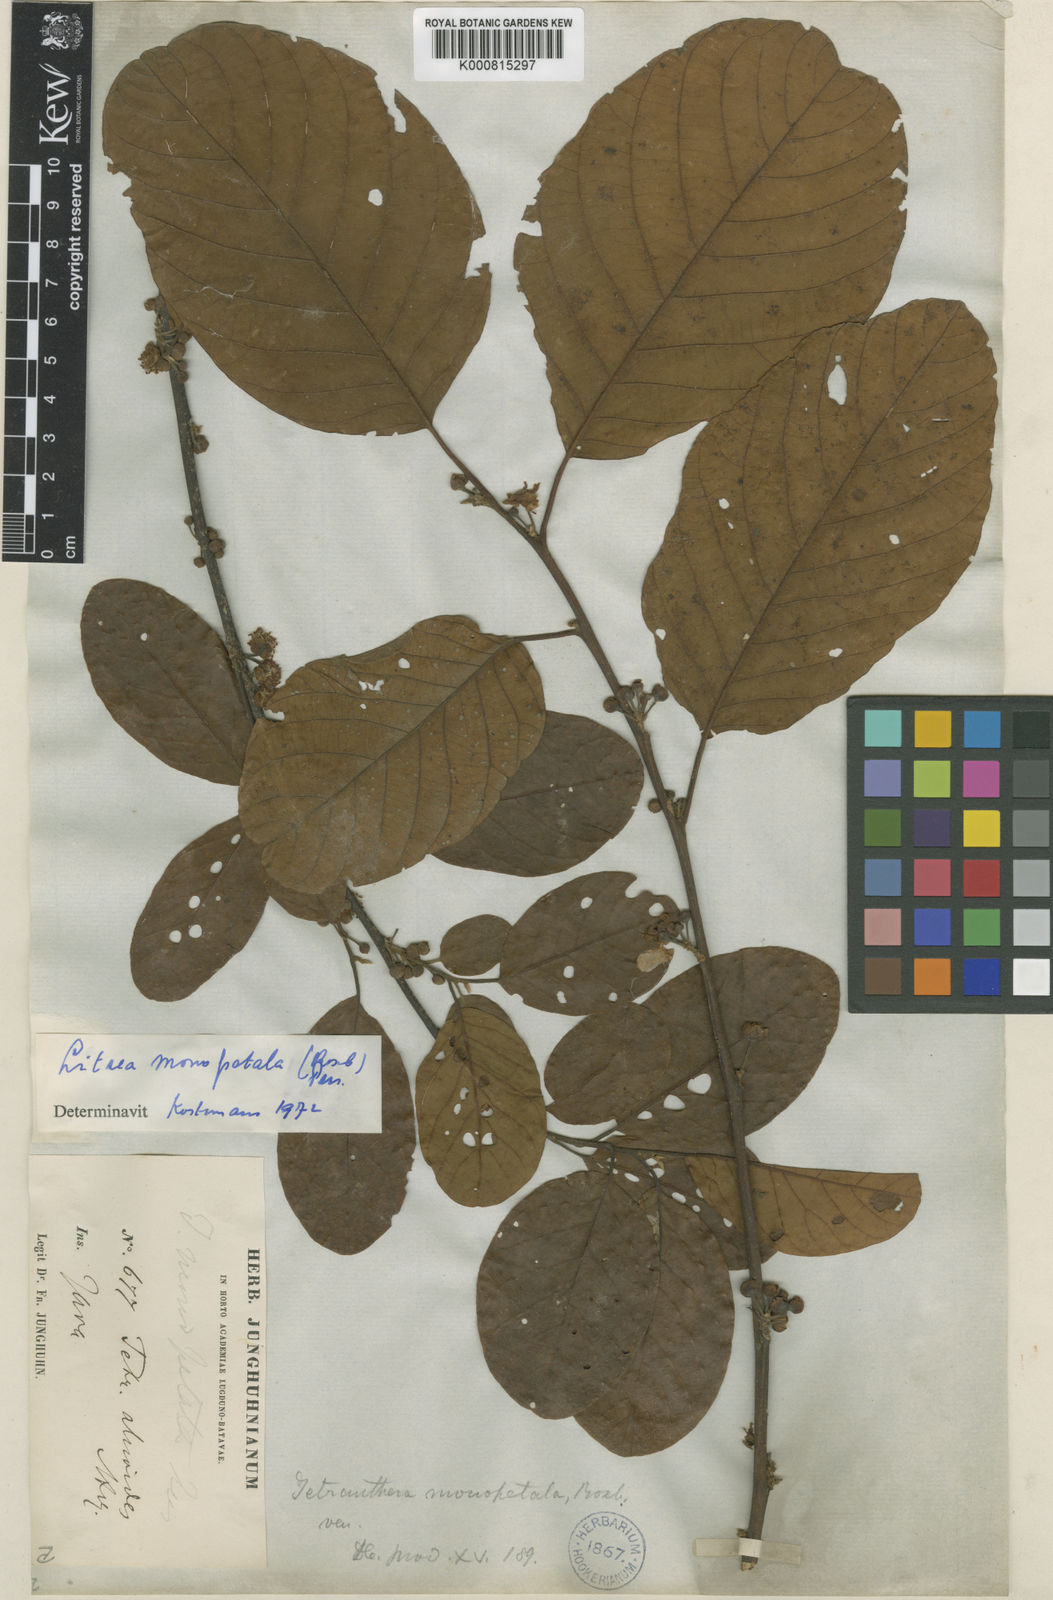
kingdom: Plantae
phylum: Tracheophyta
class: Magnoliopsida
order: Laurales
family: Lauraceae
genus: Litsea
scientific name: Litsea monopetala
